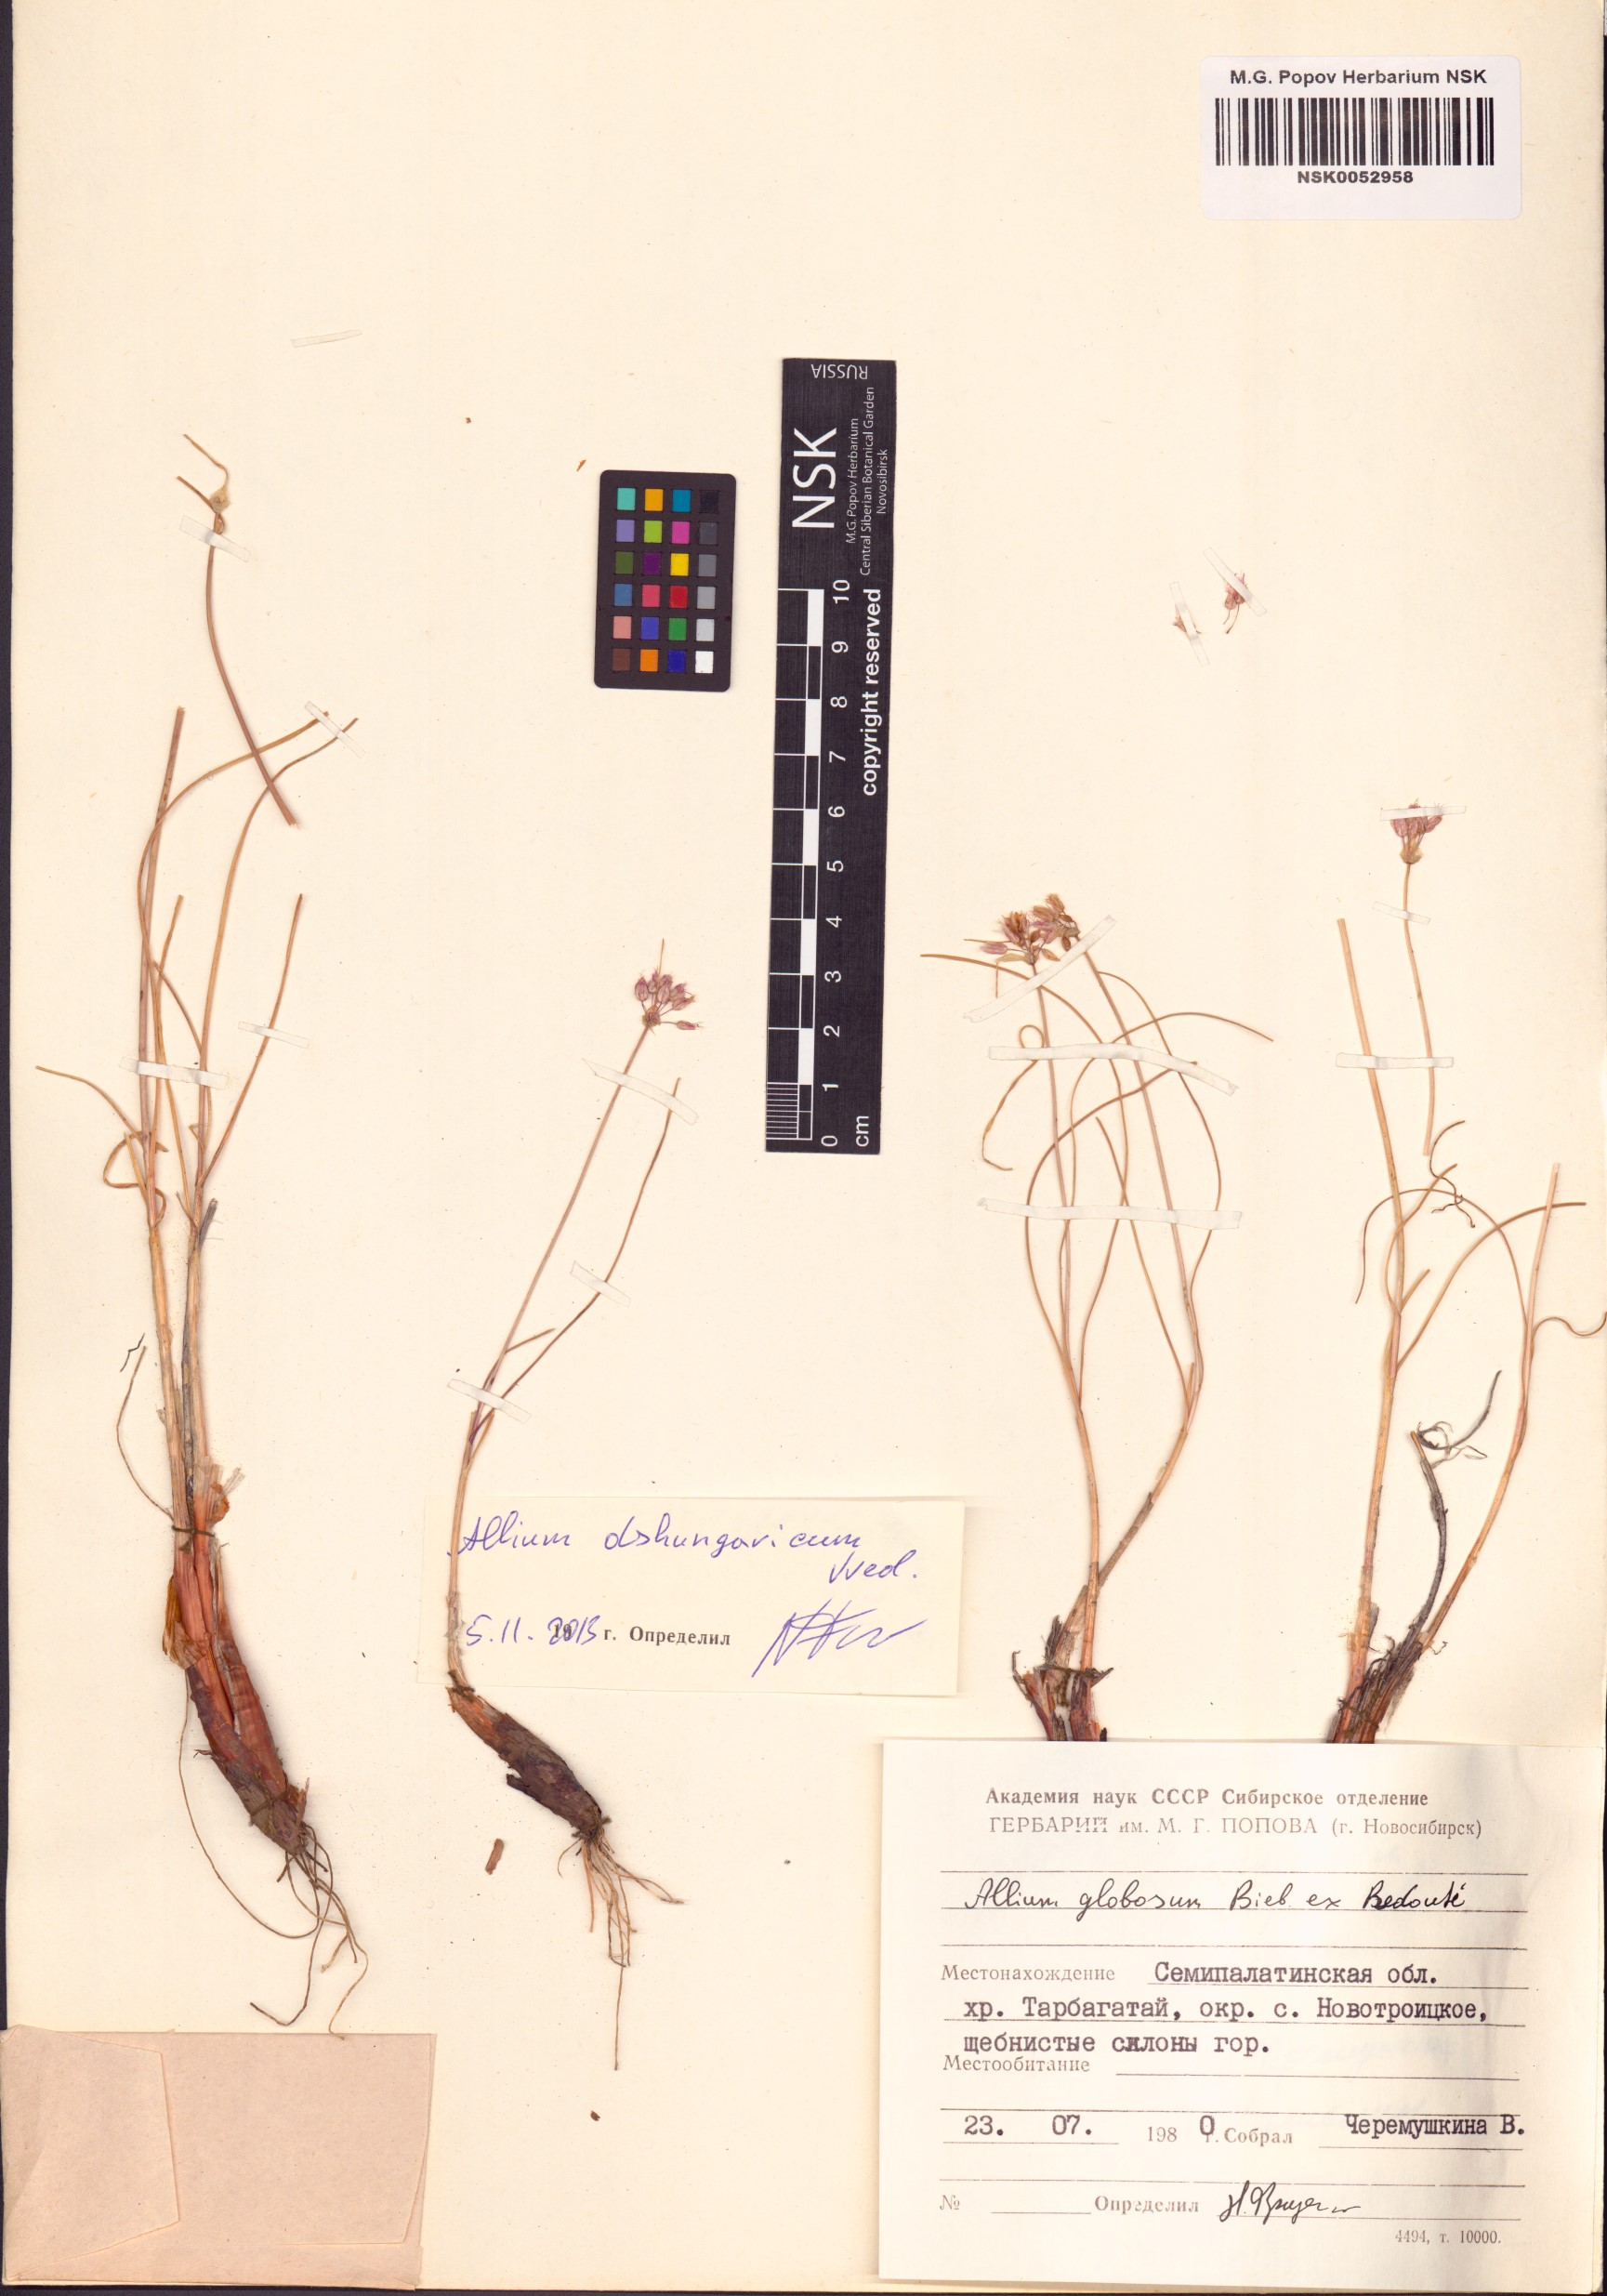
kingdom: Plantae
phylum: Tracheophyta
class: Liliopsida
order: Asparagales
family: Amaryllidaceae
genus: Allium
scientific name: Allium dshungaricum
